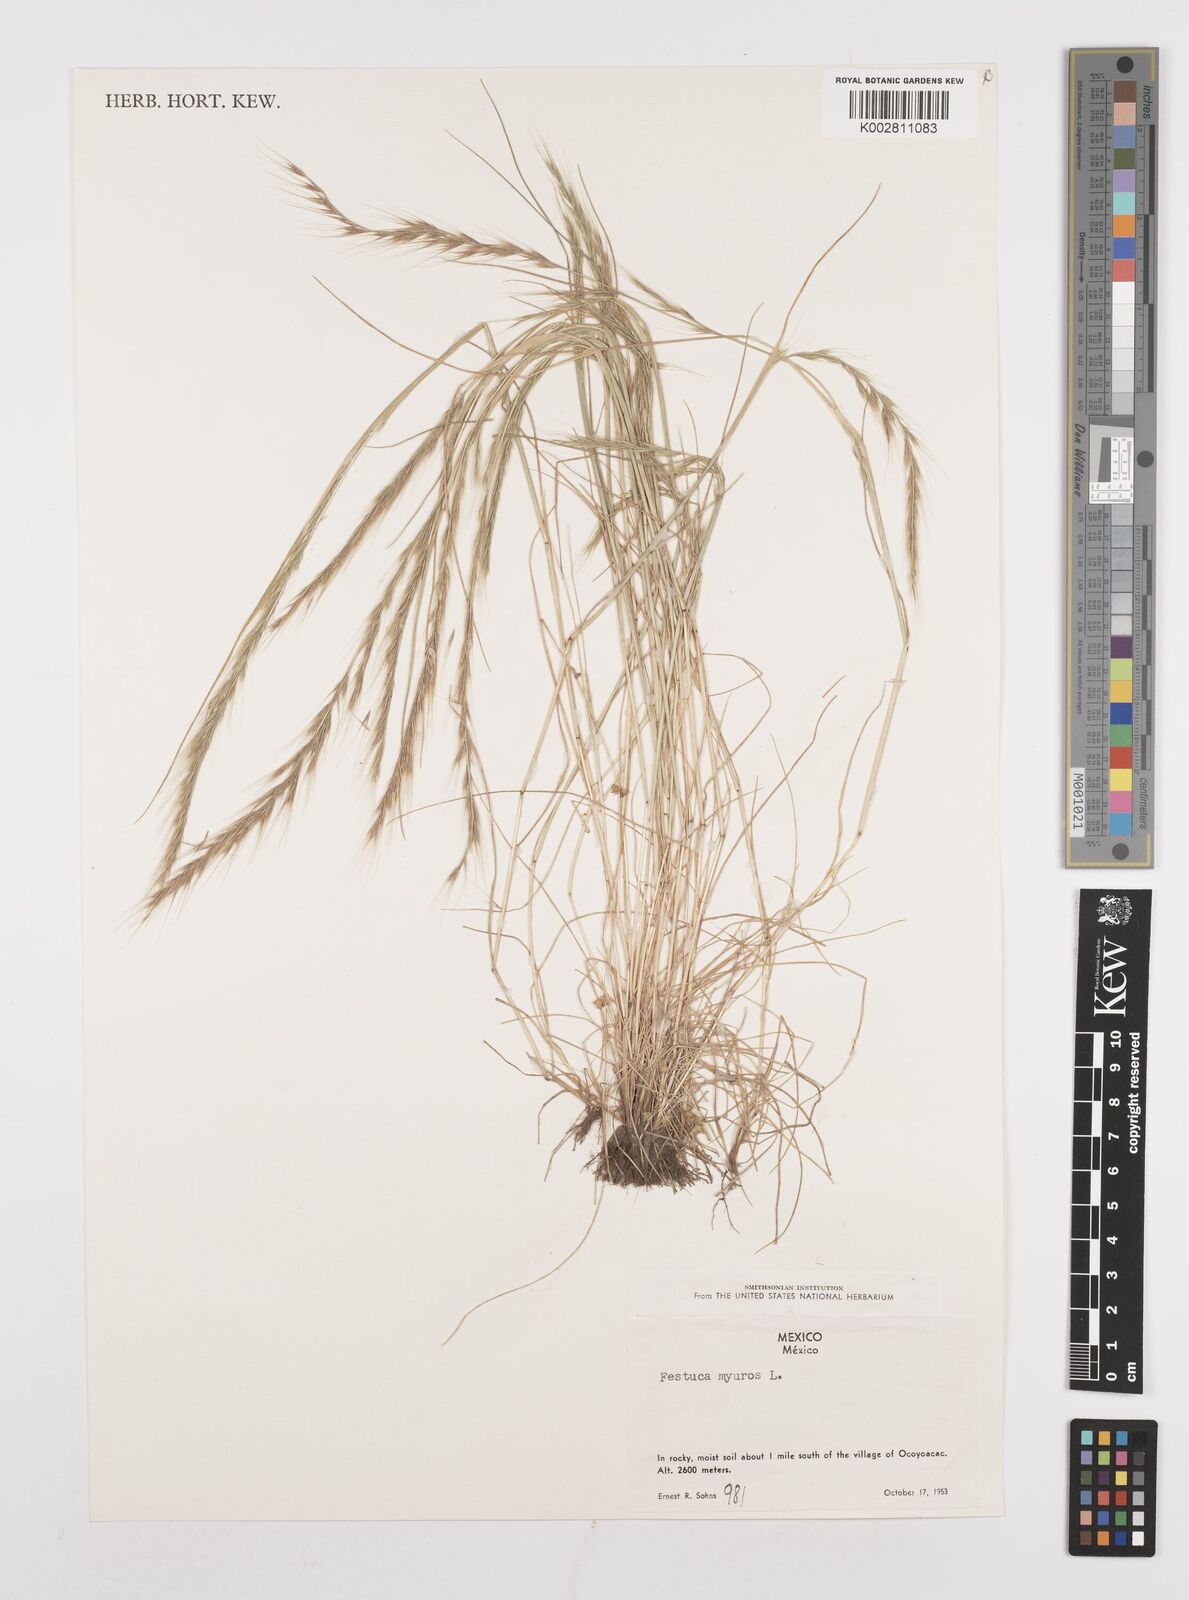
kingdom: Plantae
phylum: Tracheophyta
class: Liliopsida
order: Poales
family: Poaceae
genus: Festuca
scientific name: Festuca myuros
